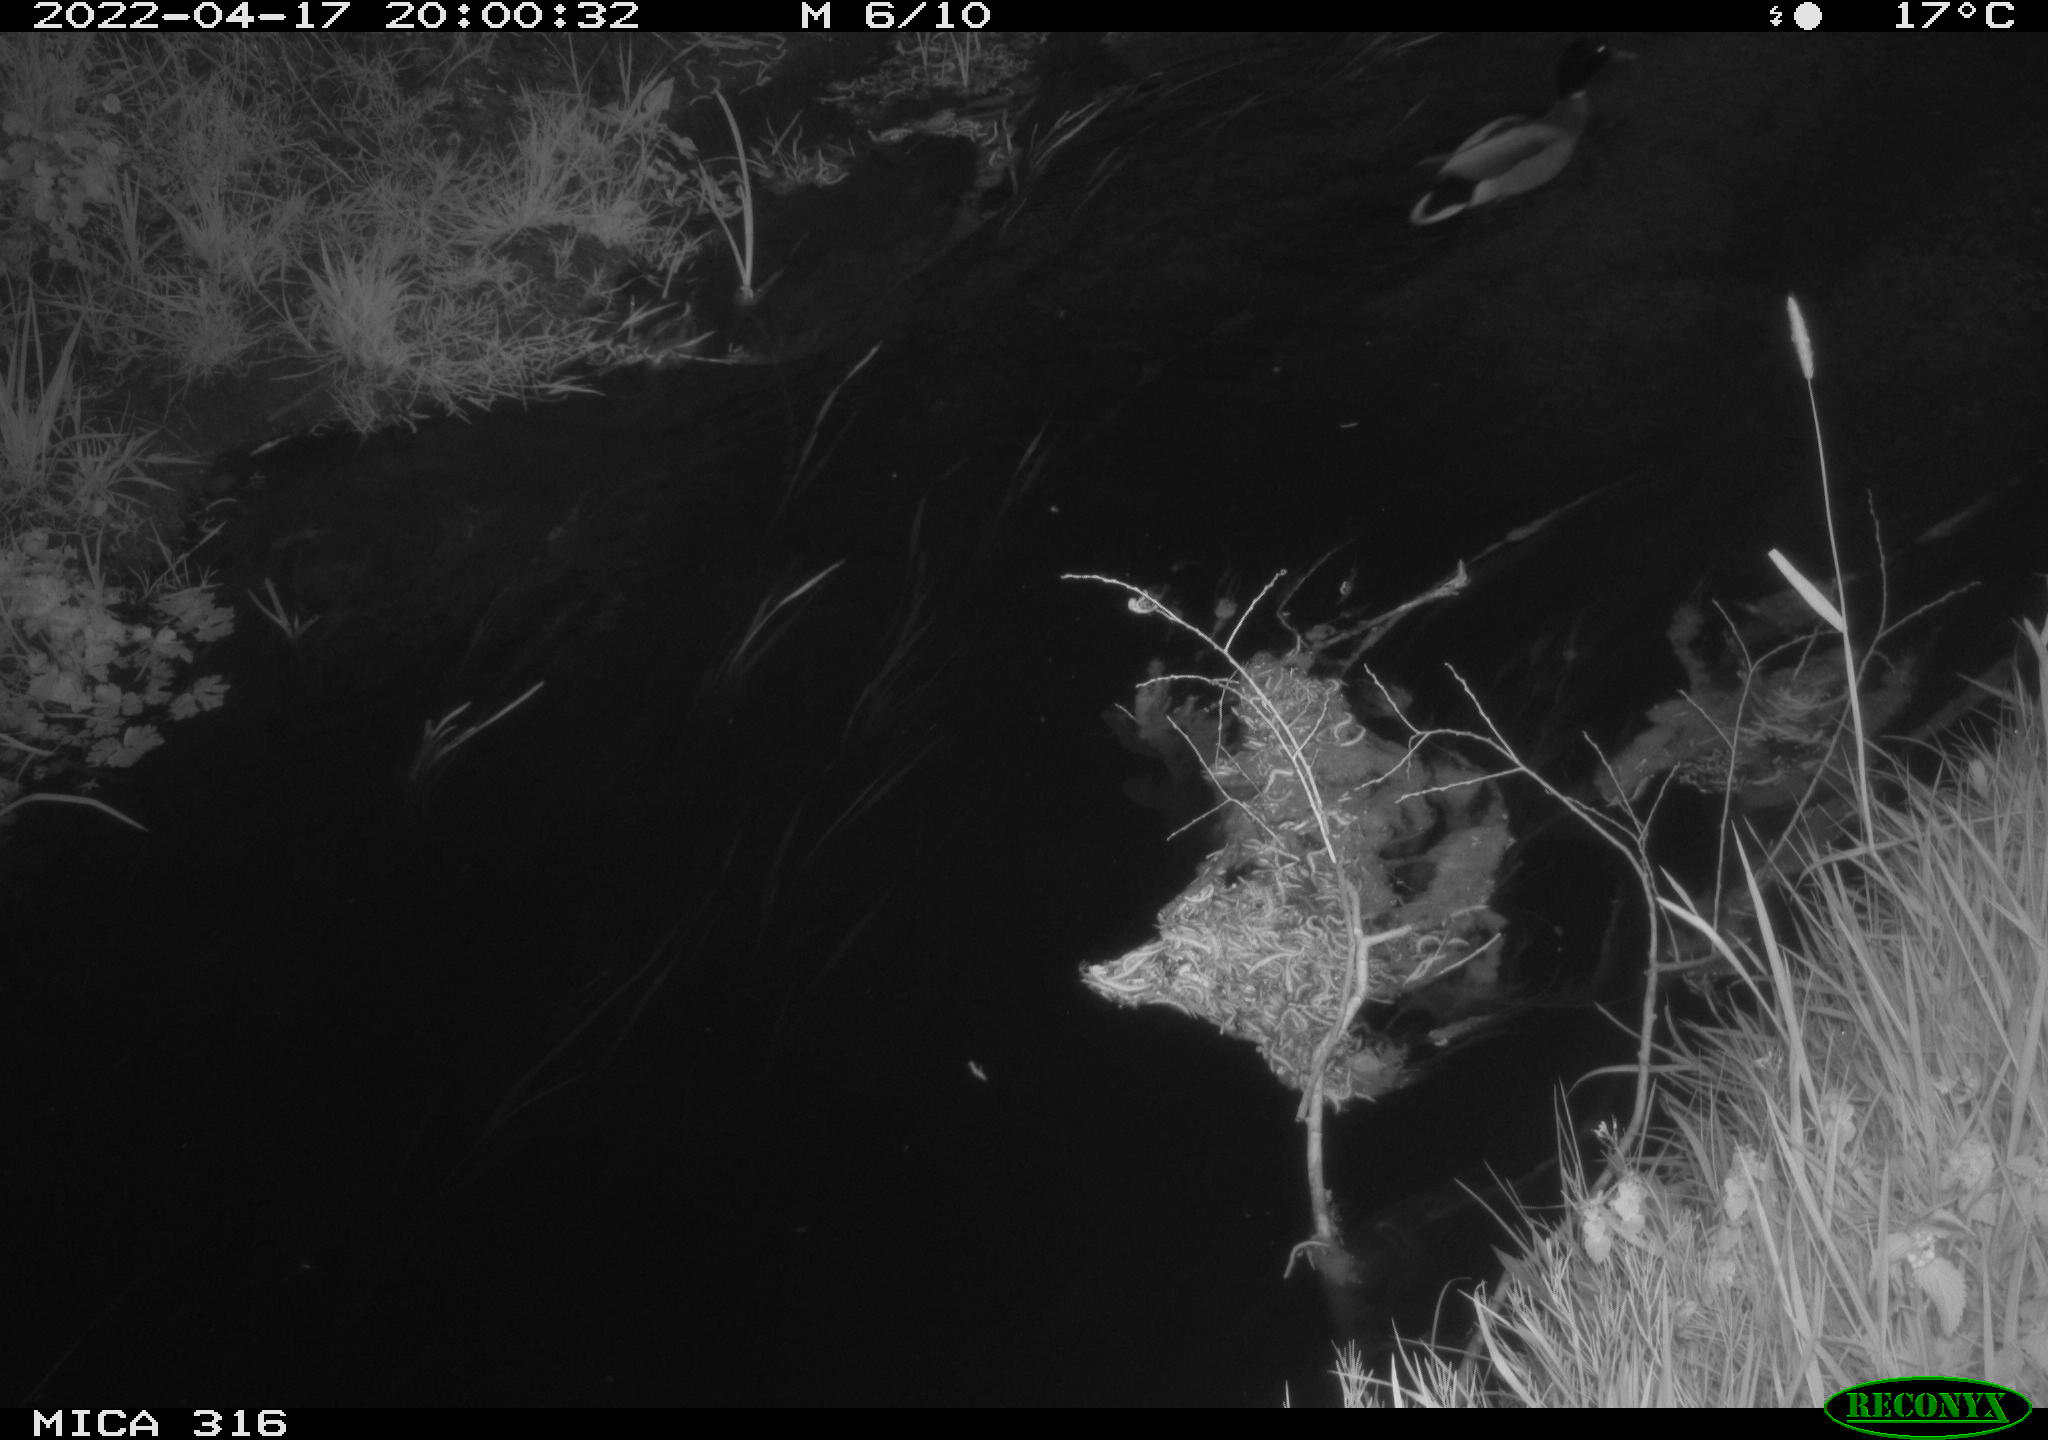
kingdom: Animalia
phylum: Chordata
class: Aves
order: Anseriformes
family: Anatidae
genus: Anas
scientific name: Anas platyrhynchos
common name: Mallard
